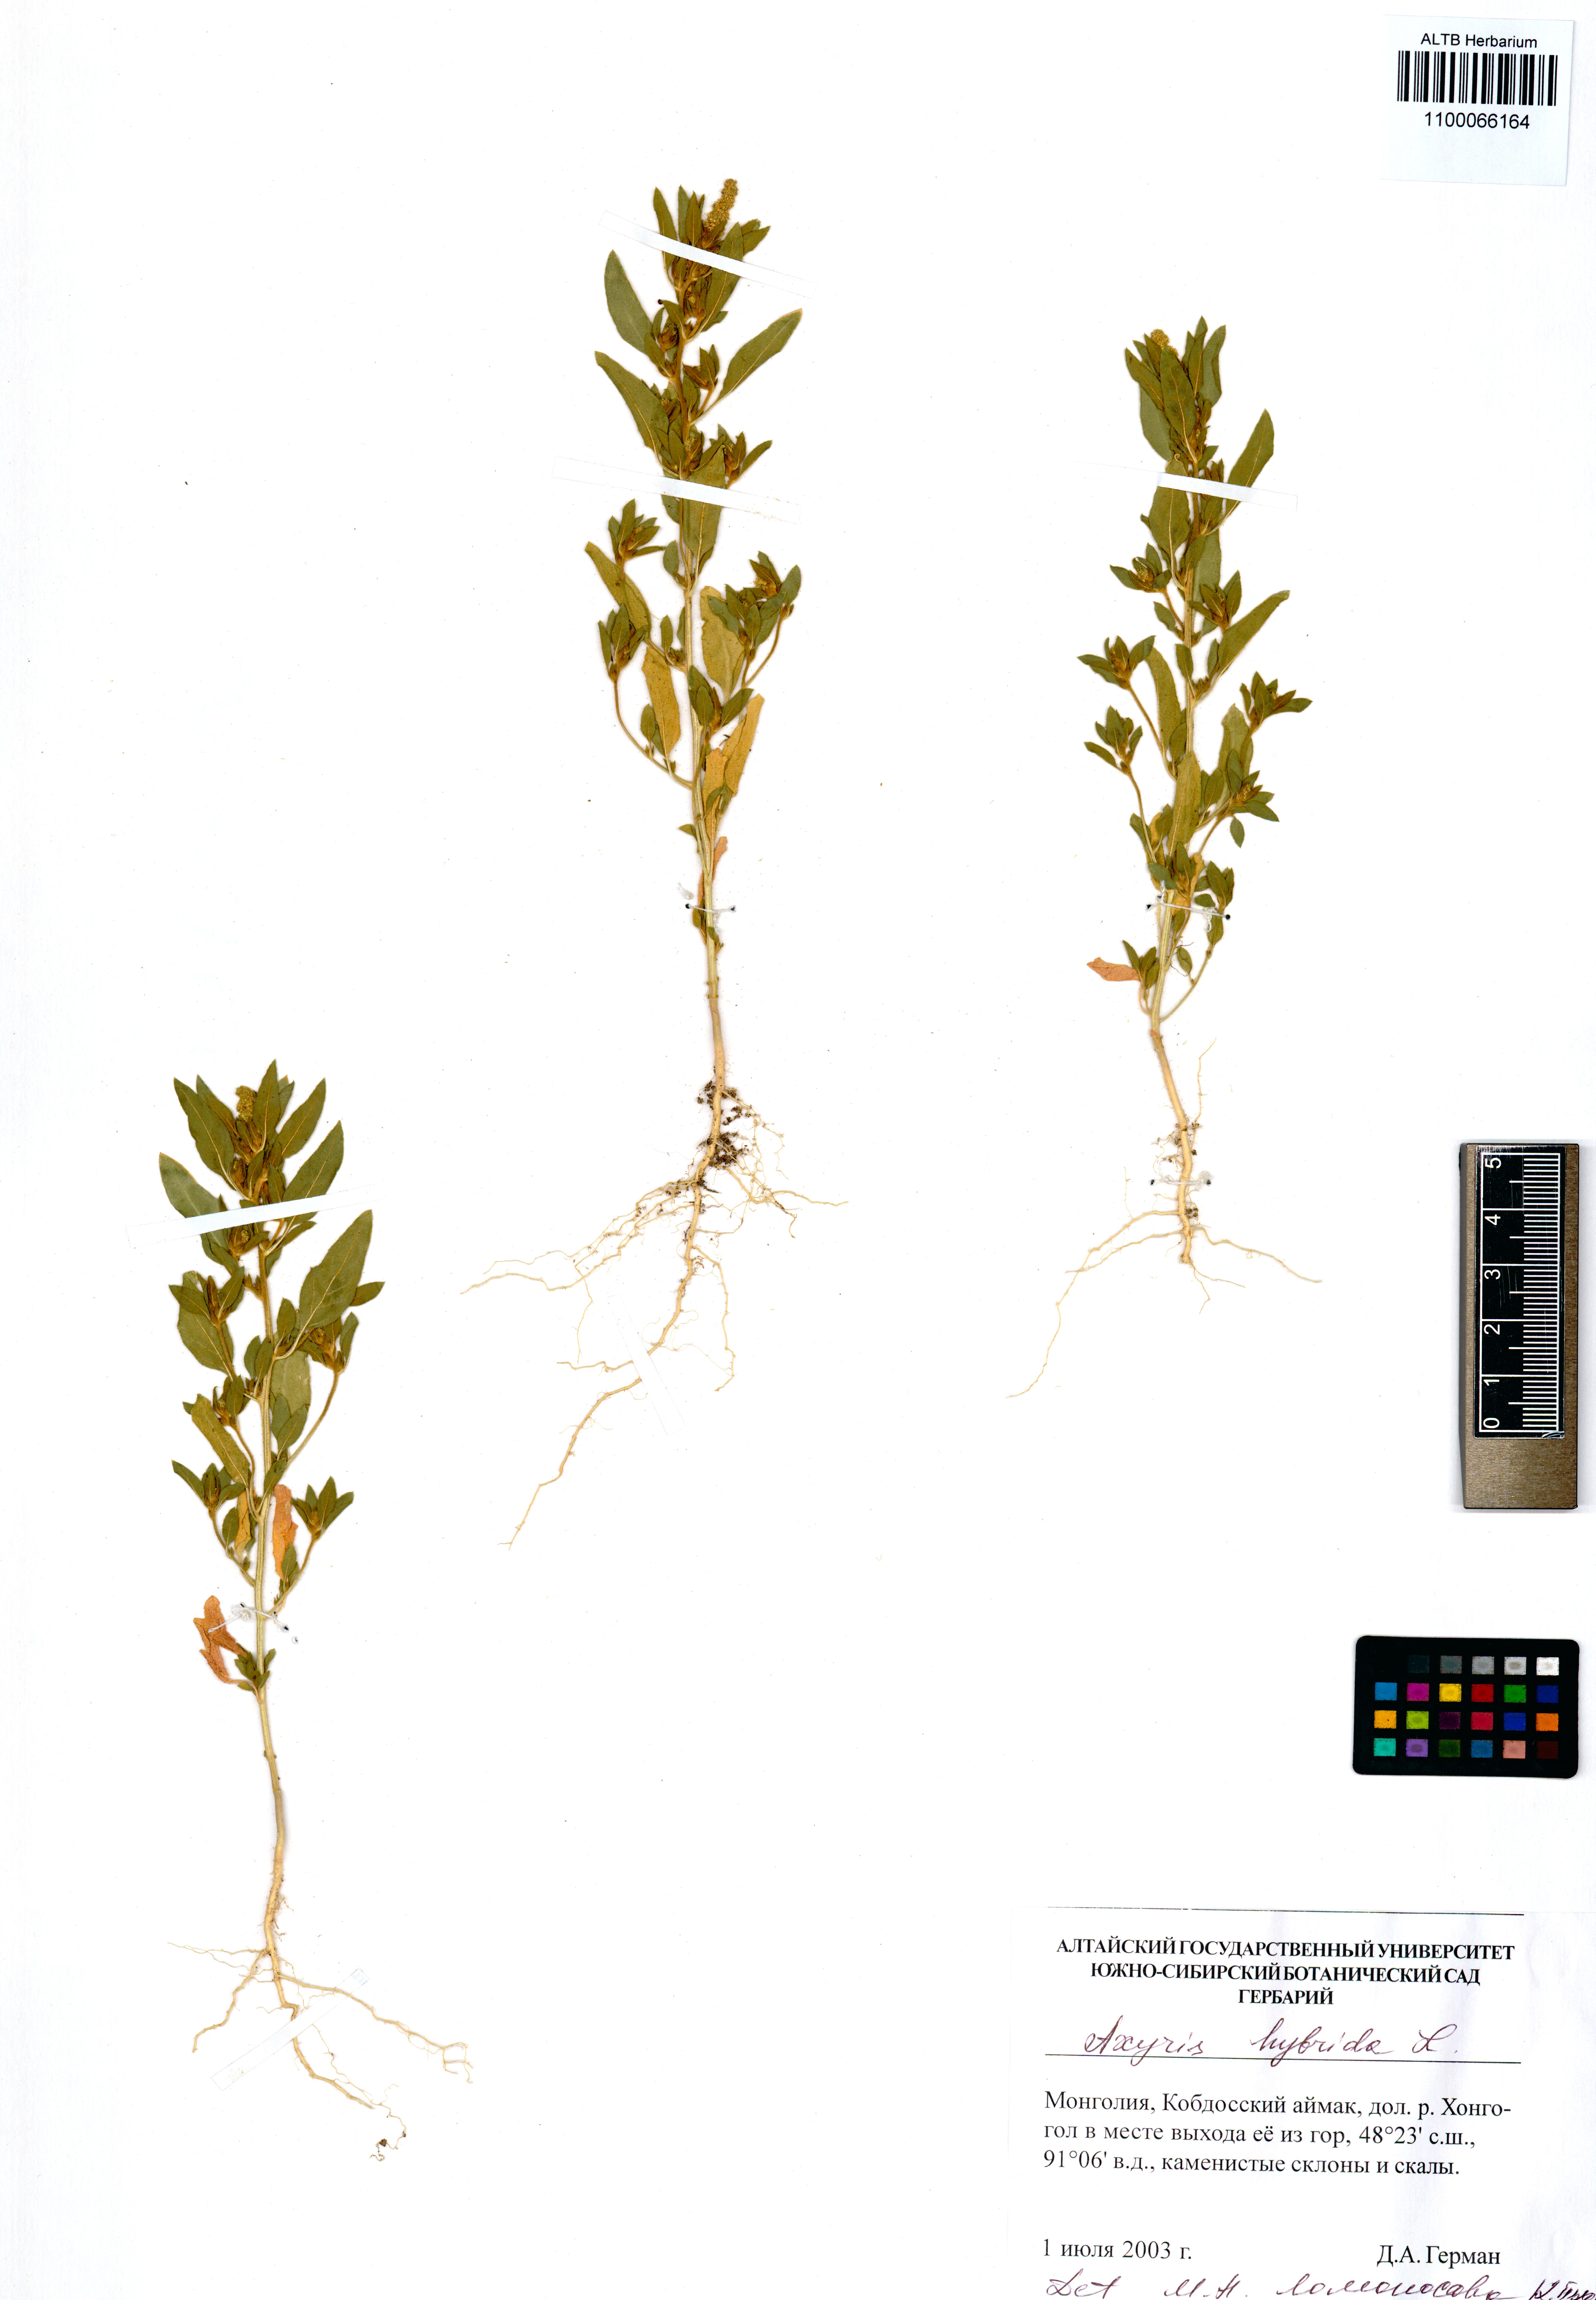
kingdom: Plantae
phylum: Tracheophyta
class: Magnoliopsida
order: Caryophyllales
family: Amaranthaceae
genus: Axyris
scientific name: Axyris hybrida
